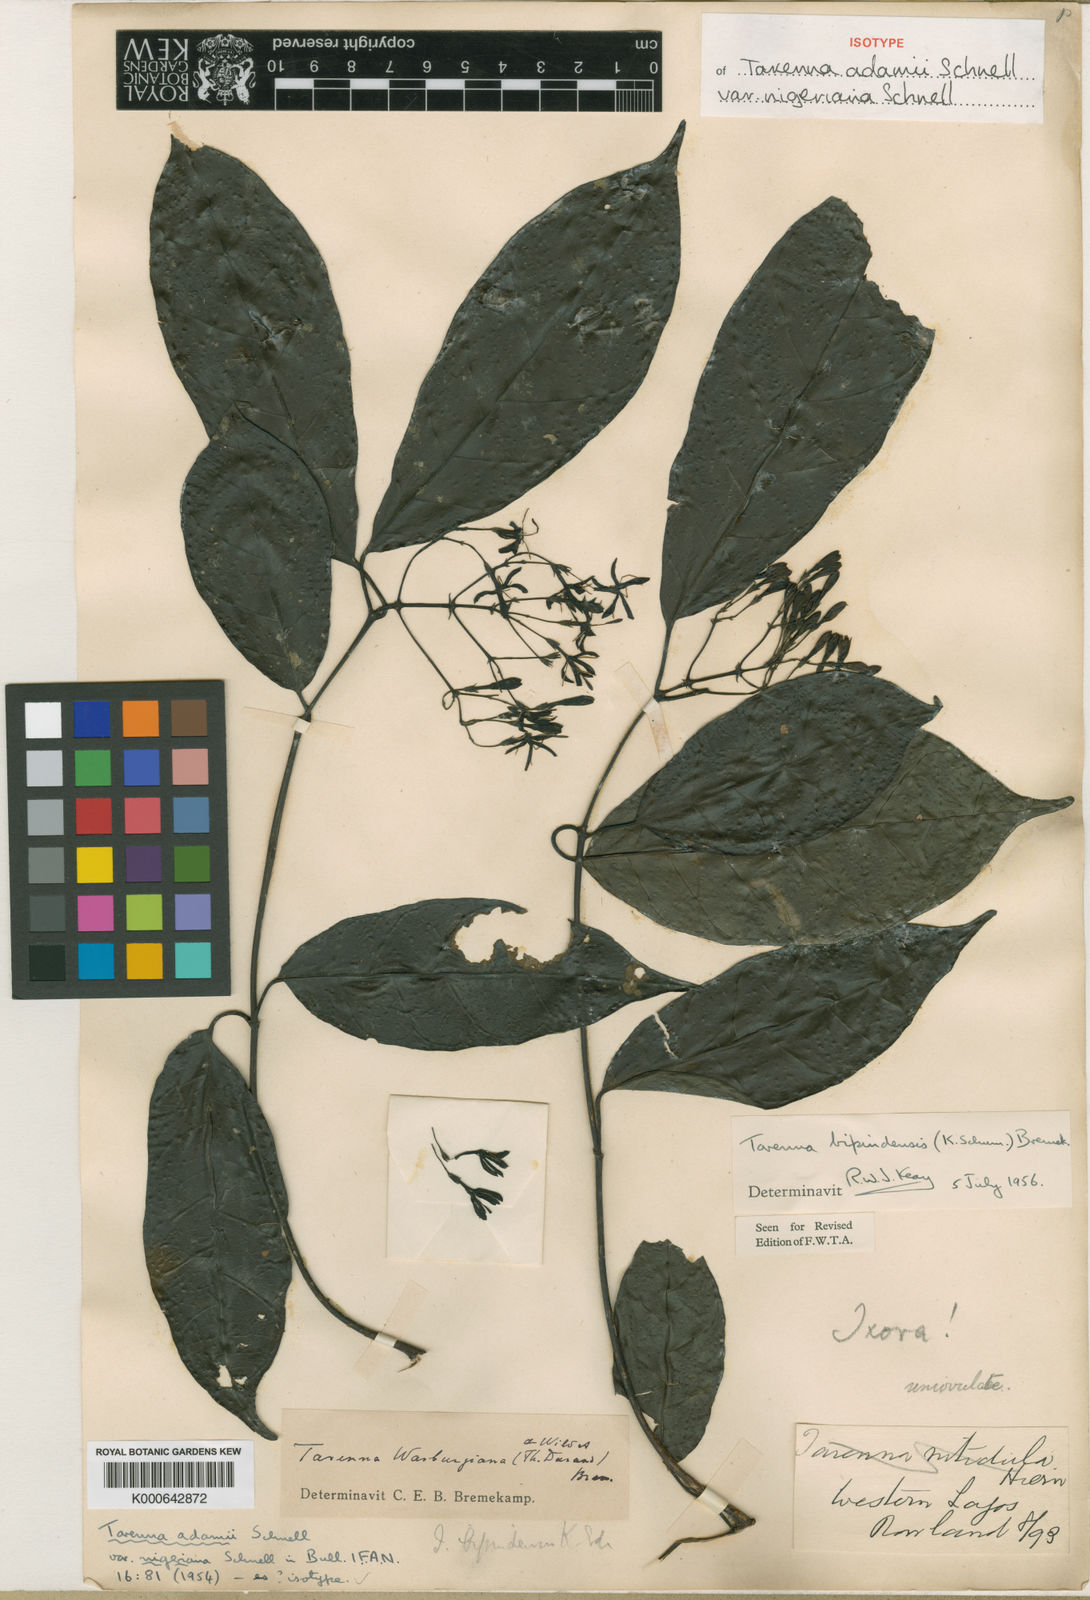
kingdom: Plantae
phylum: Tracheophyta
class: Magnoliopsida
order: Gentianales
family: Rubiaceae
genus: Tarenna
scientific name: Tarenna bipindensis
